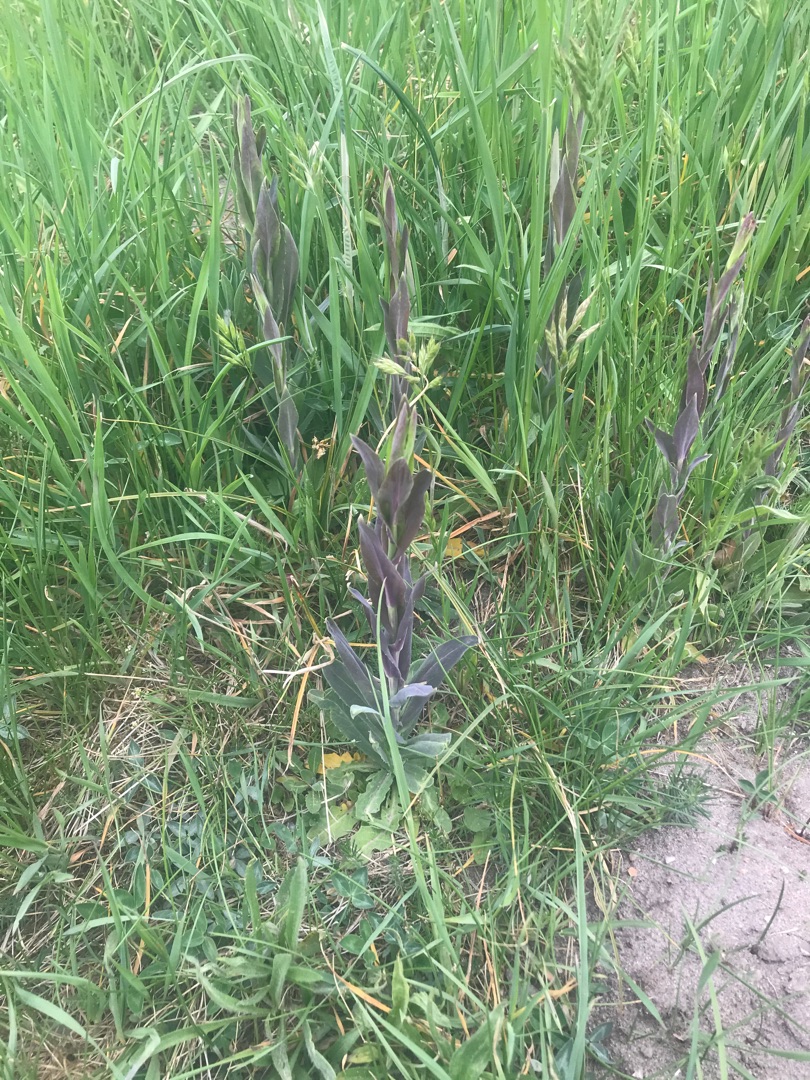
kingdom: Plantae
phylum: Tracheophyta
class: Magnoliopsida
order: Brassicales
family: Brassicaceae
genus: Turritis
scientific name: Turritis glabra
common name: Tårnurt
